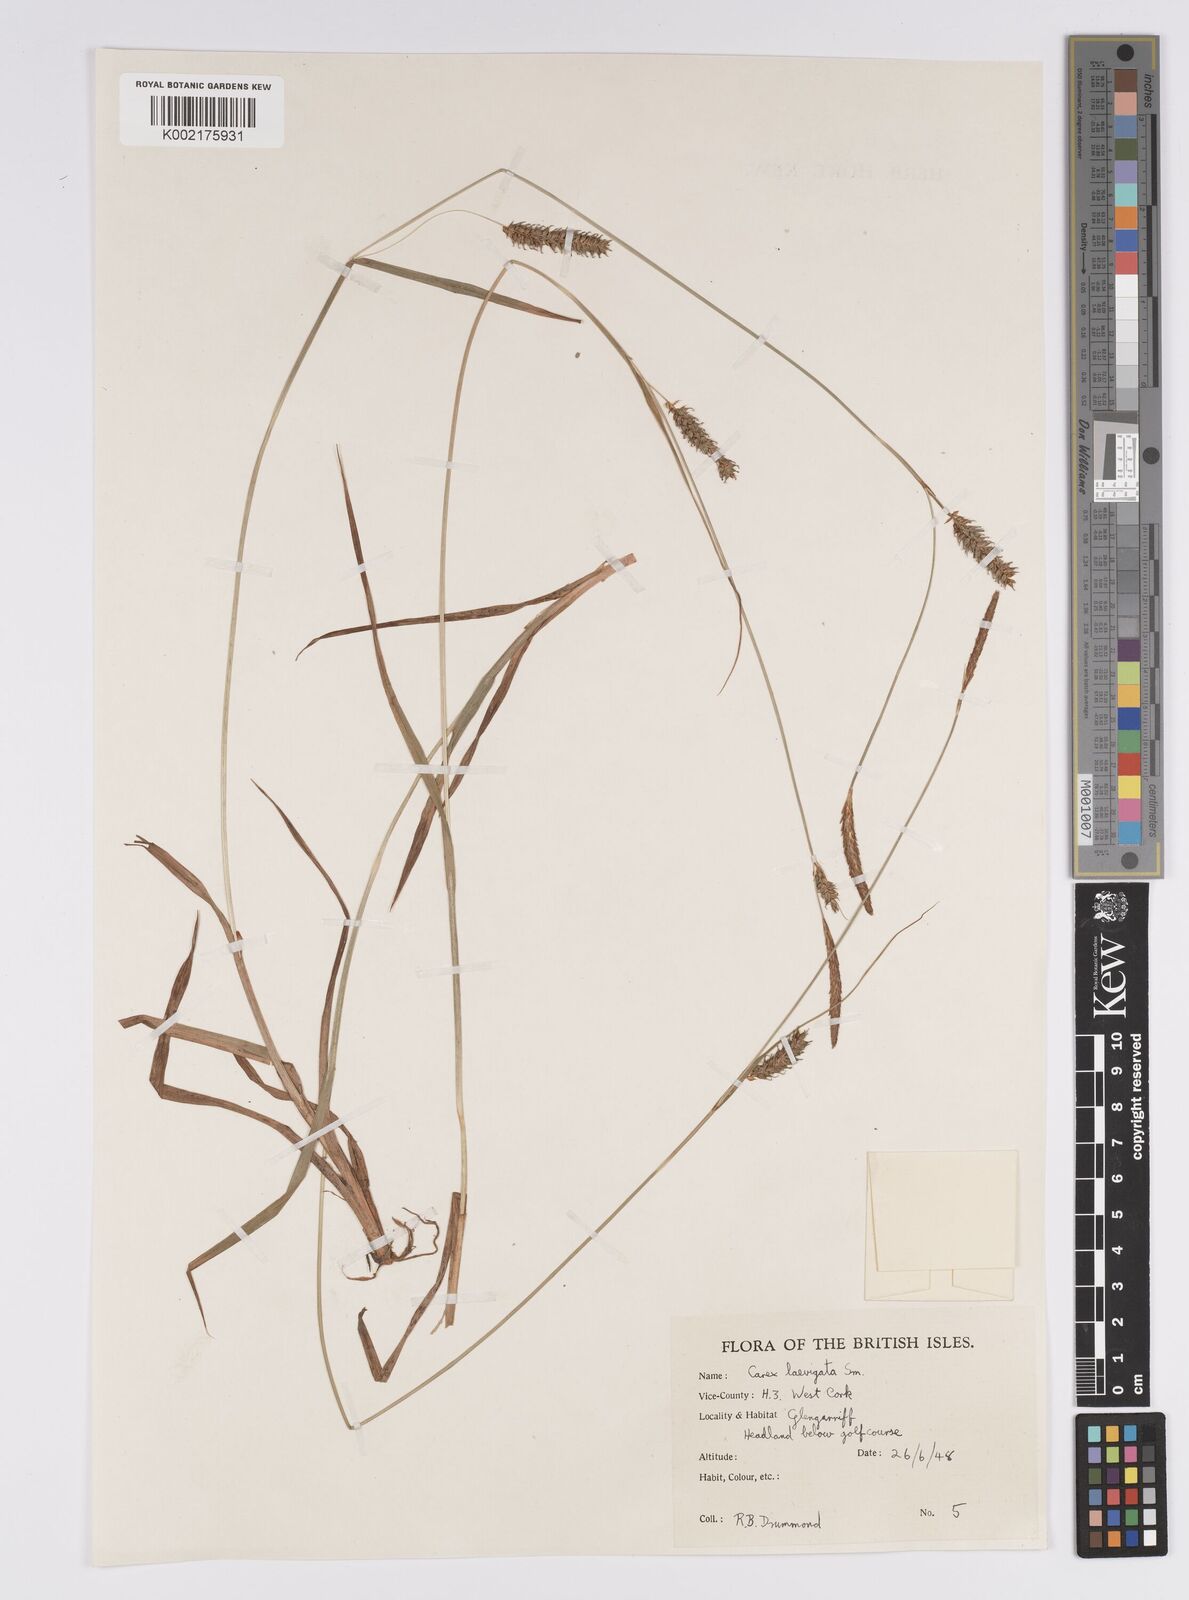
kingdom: Plantae
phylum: Tracheophyta
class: Liliopsida
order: Poales
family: Cyperaceae
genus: Carex
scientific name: Carex laevigata
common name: Smooth-stalked sedge
